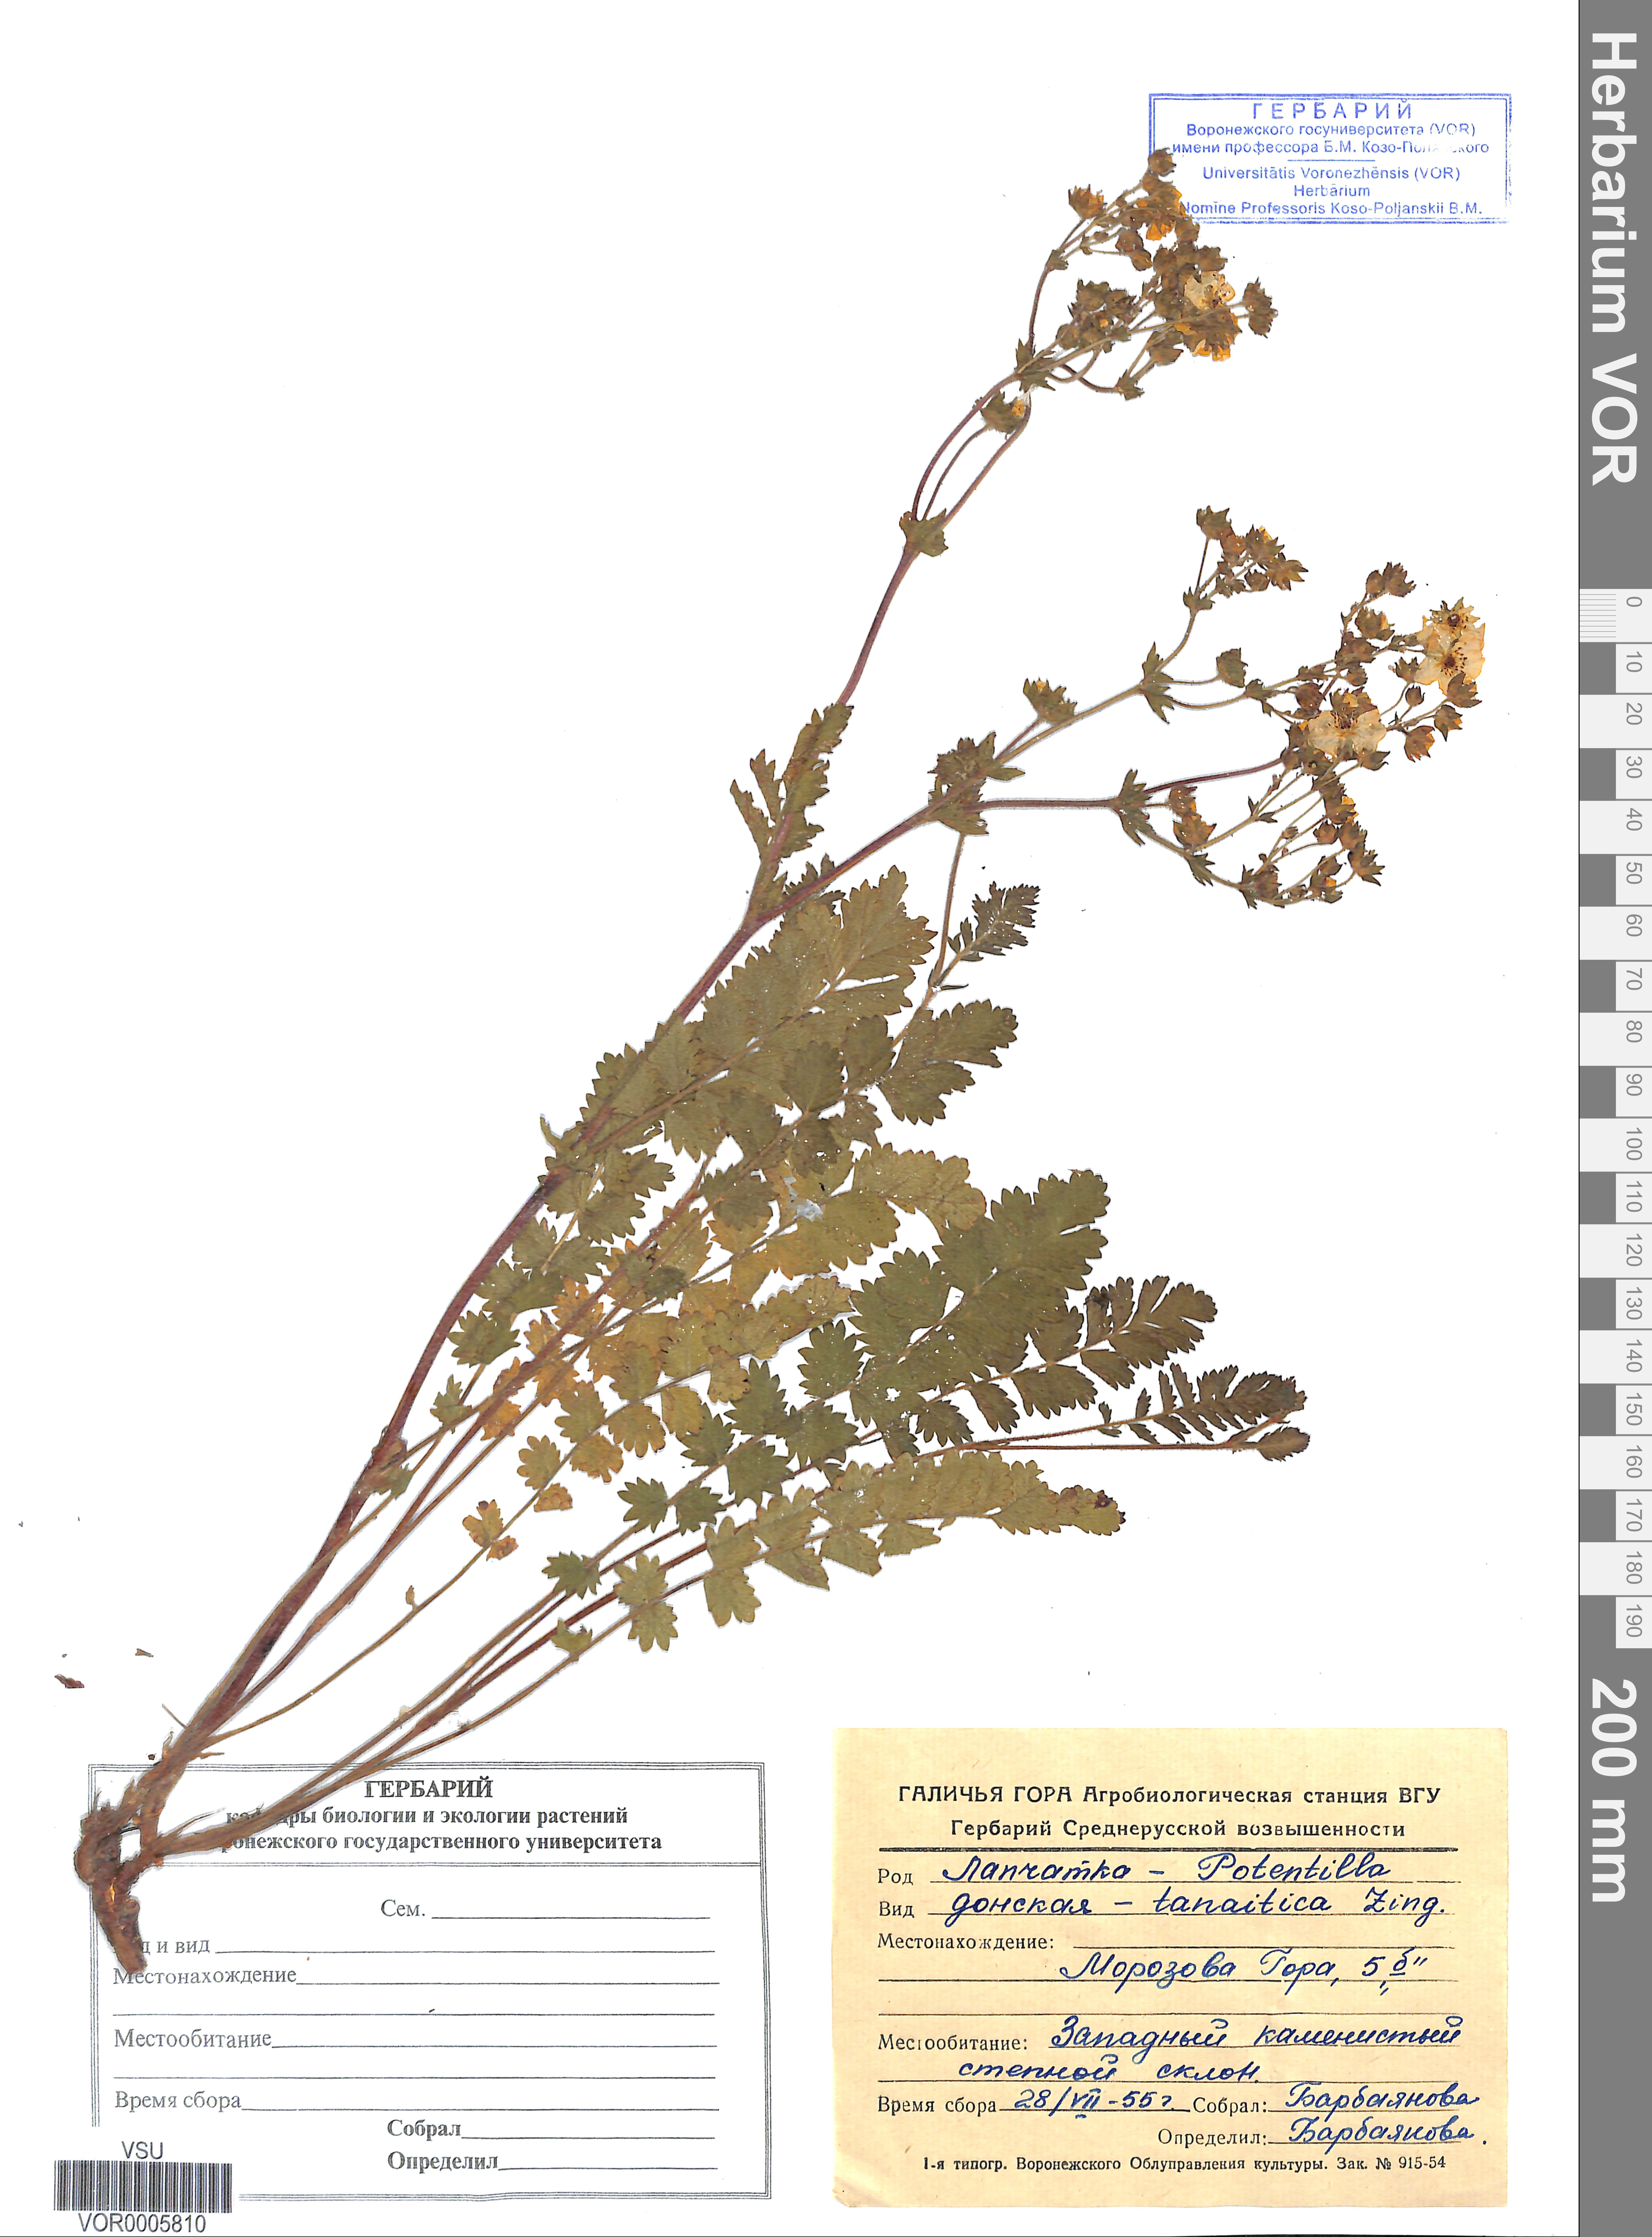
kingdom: Plantae
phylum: Tracheophyta
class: Magnoliopsida
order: Rosales
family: Rosaceae
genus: Potentilla
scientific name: Potentilla tanaitica
